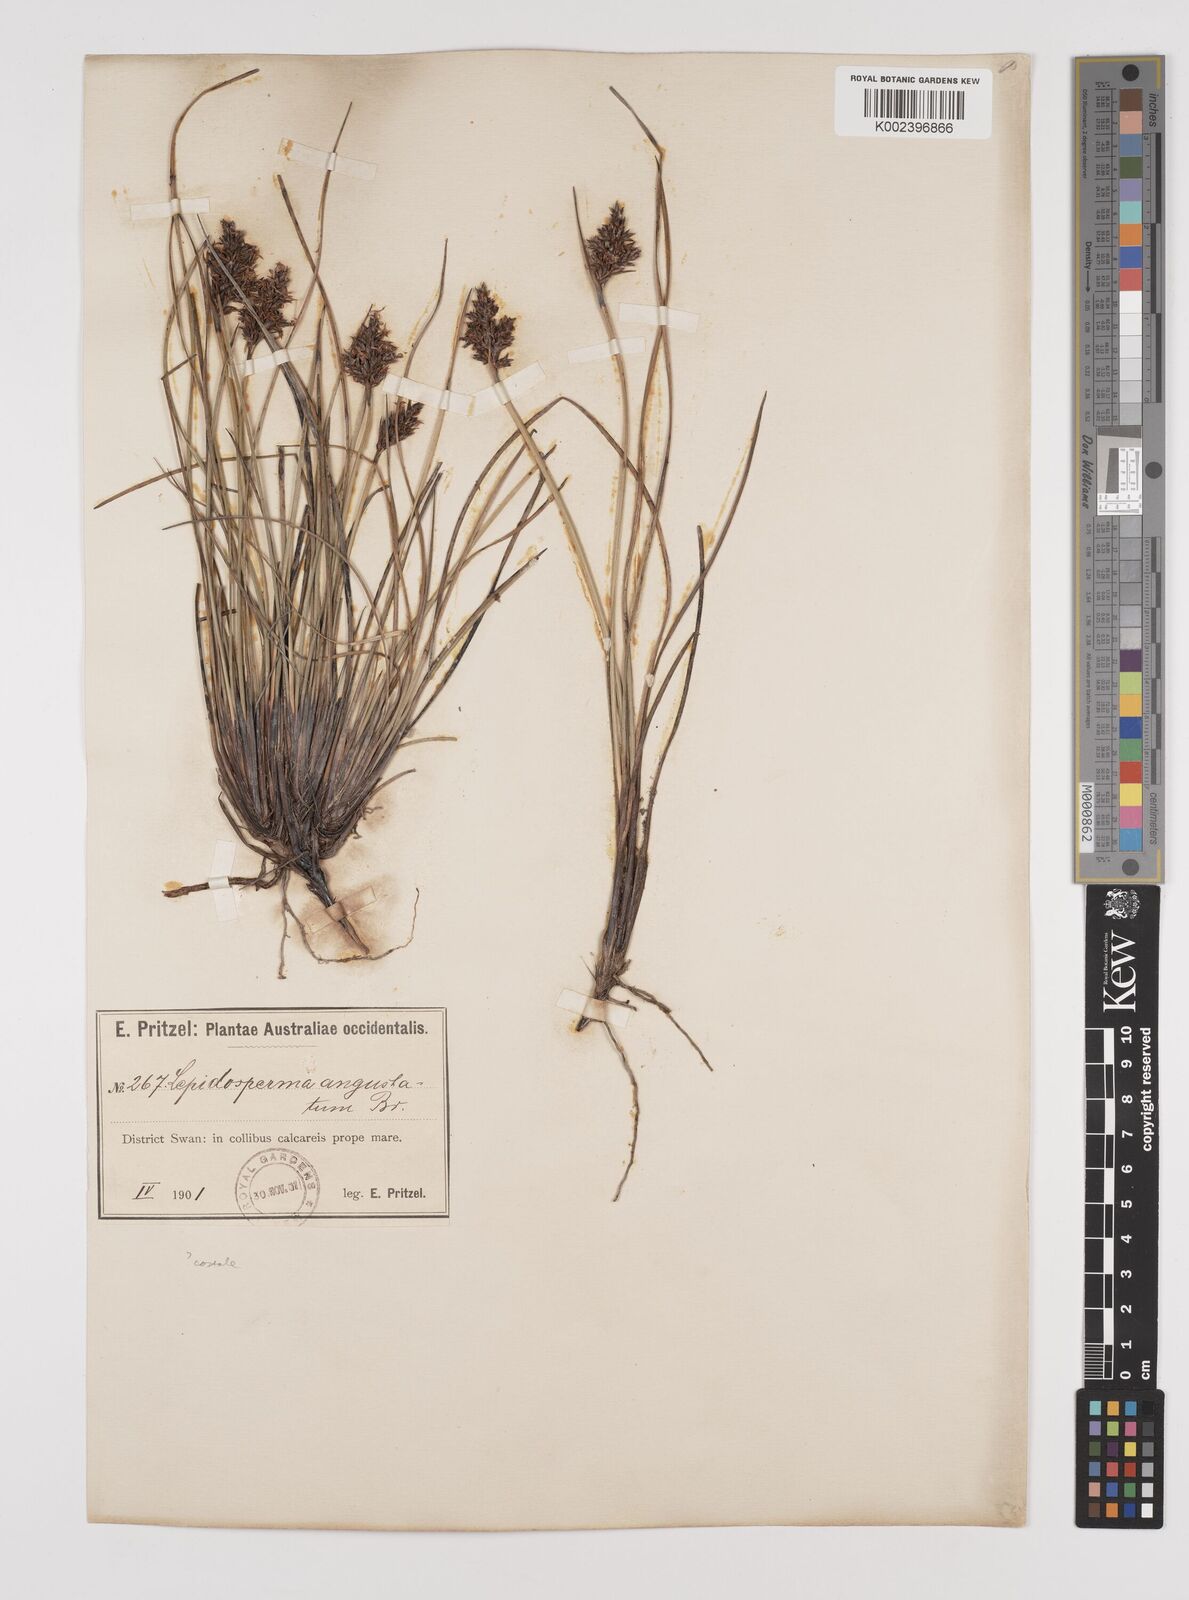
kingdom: Plantae
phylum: Tracheophyta
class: Liliopsida
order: Poales
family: Cyperaceae
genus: Lepidosperma
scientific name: Lepidosperma costale
